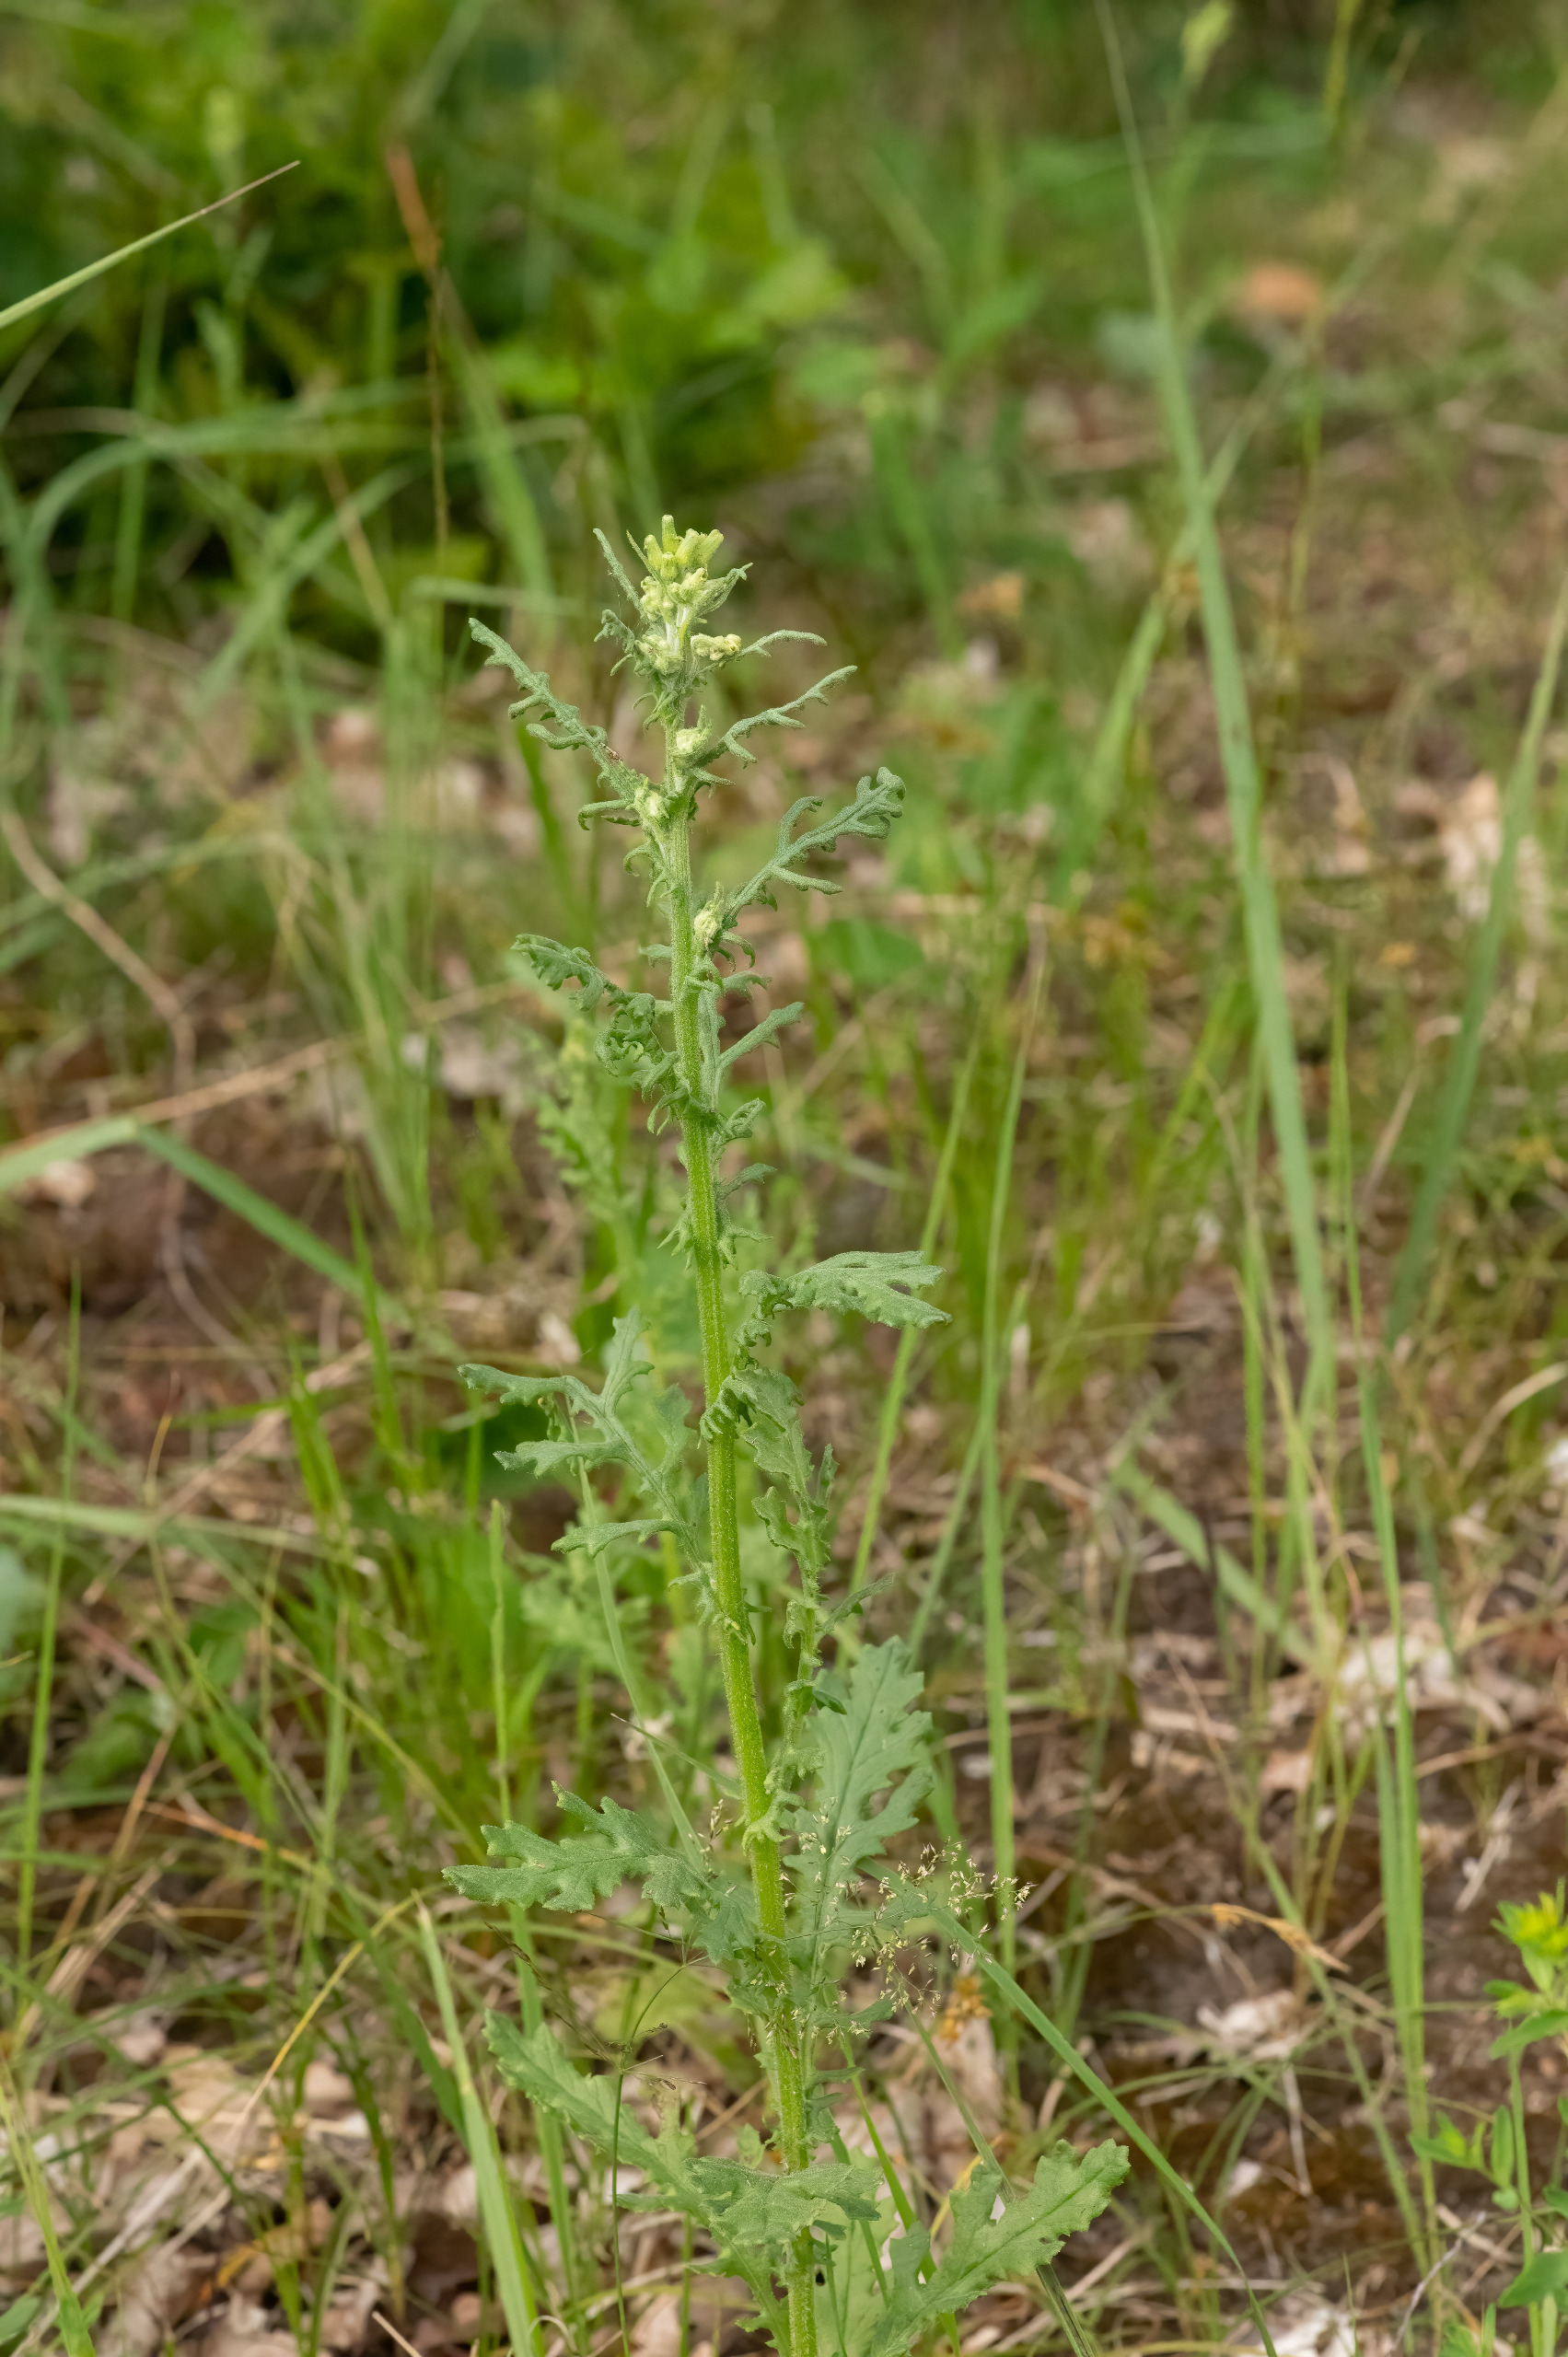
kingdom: Plantae
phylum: Tracheophyta
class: Magnoliopsida
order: Asterales
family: Asteraceae
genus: Senecio
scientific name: Senecio sylvaticus
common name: Skov-brandbæger
